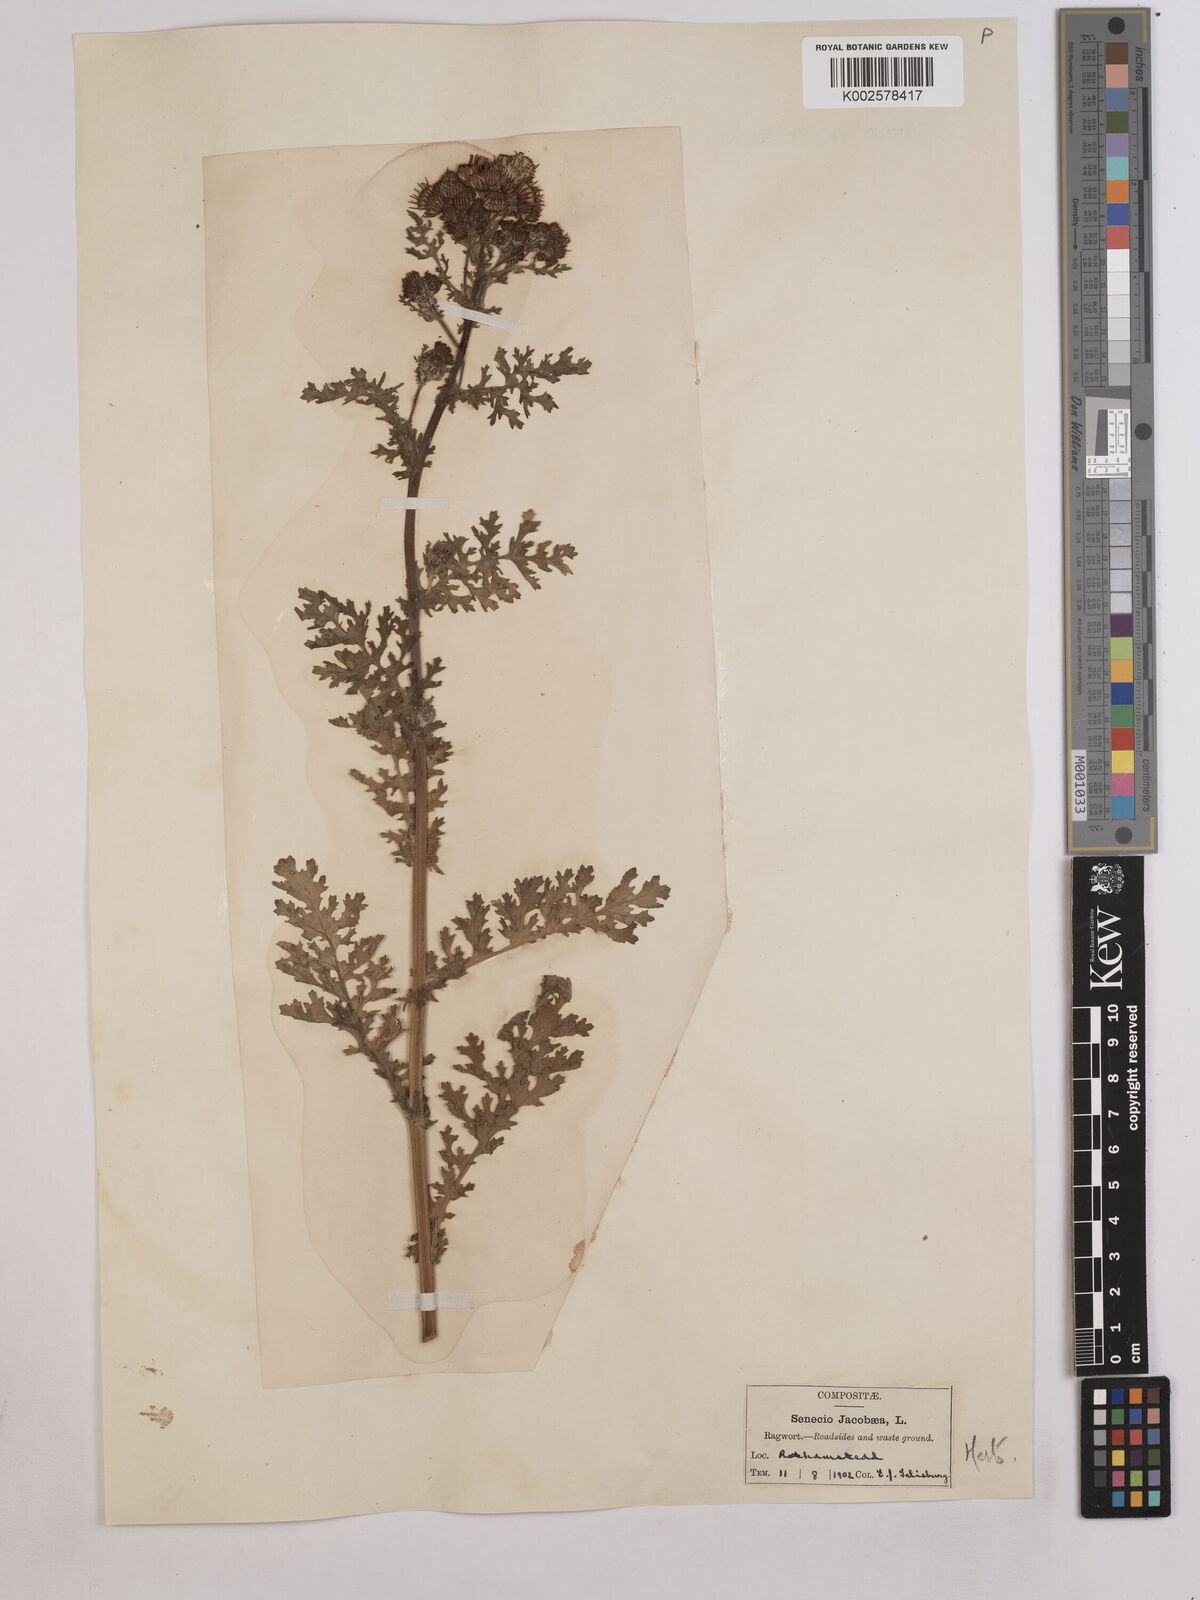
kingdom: Plantae
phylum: Tracheophyta
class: Magnoliopsida
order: Asterales
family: Asteraceae
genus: Jacobaea
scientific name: Jacobaea vulgaris
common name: Stinking willie
